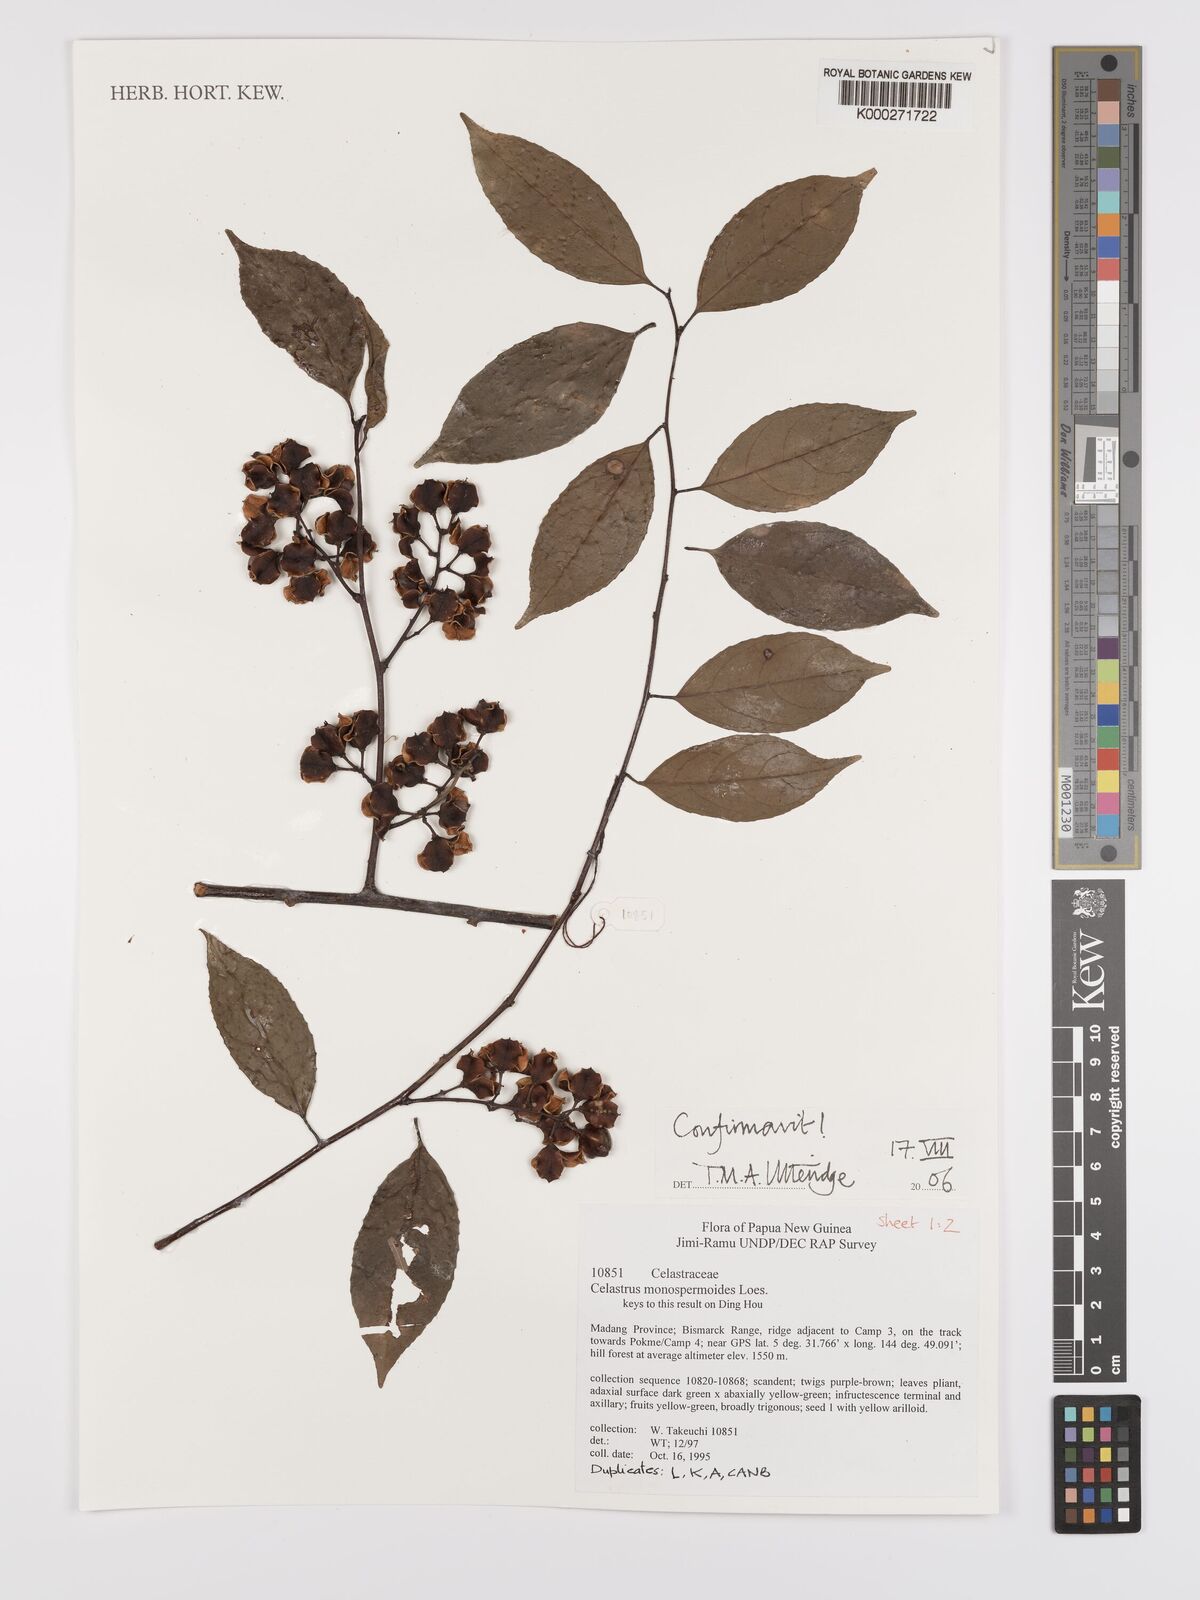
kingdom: Plantae
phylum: Tracheophyta
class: Magnoliopsida
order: Celastrales
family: Celastraceae
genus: Celastrus
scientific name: Celastrus monospermoides
